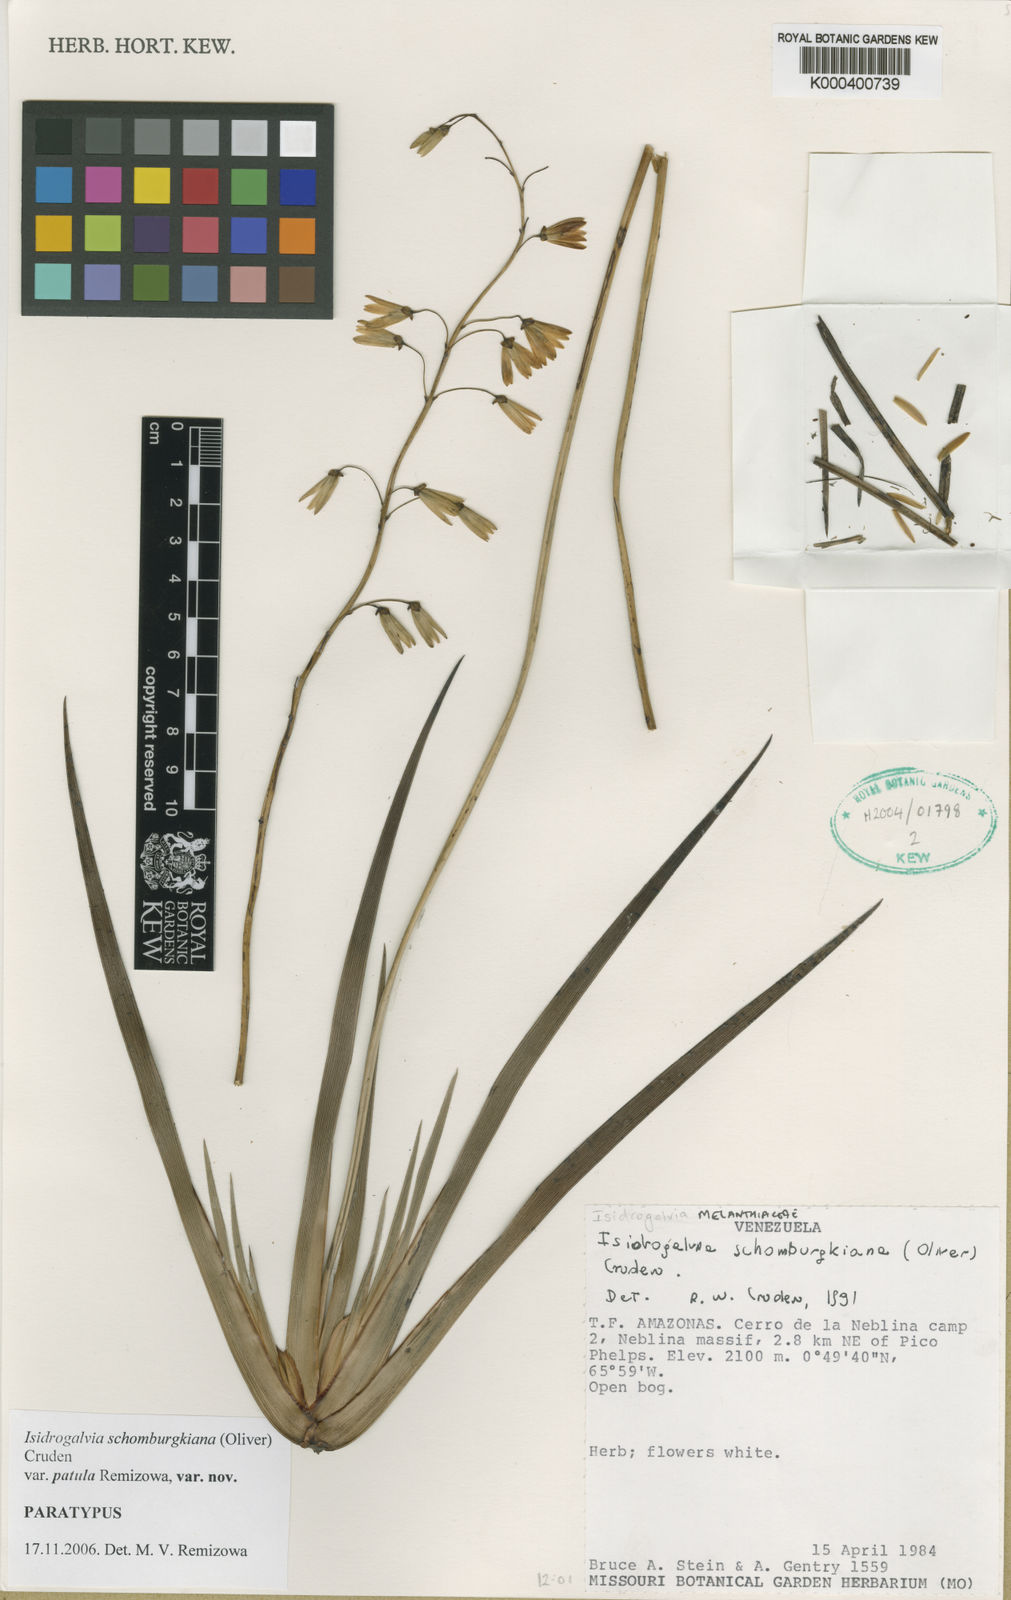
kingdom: Plantae
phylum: Tracheophyta
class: Liliopsida
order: Alismatales
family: Tofieldiaceae
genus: Harperocallis
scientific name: Harperocallis penduliflora
